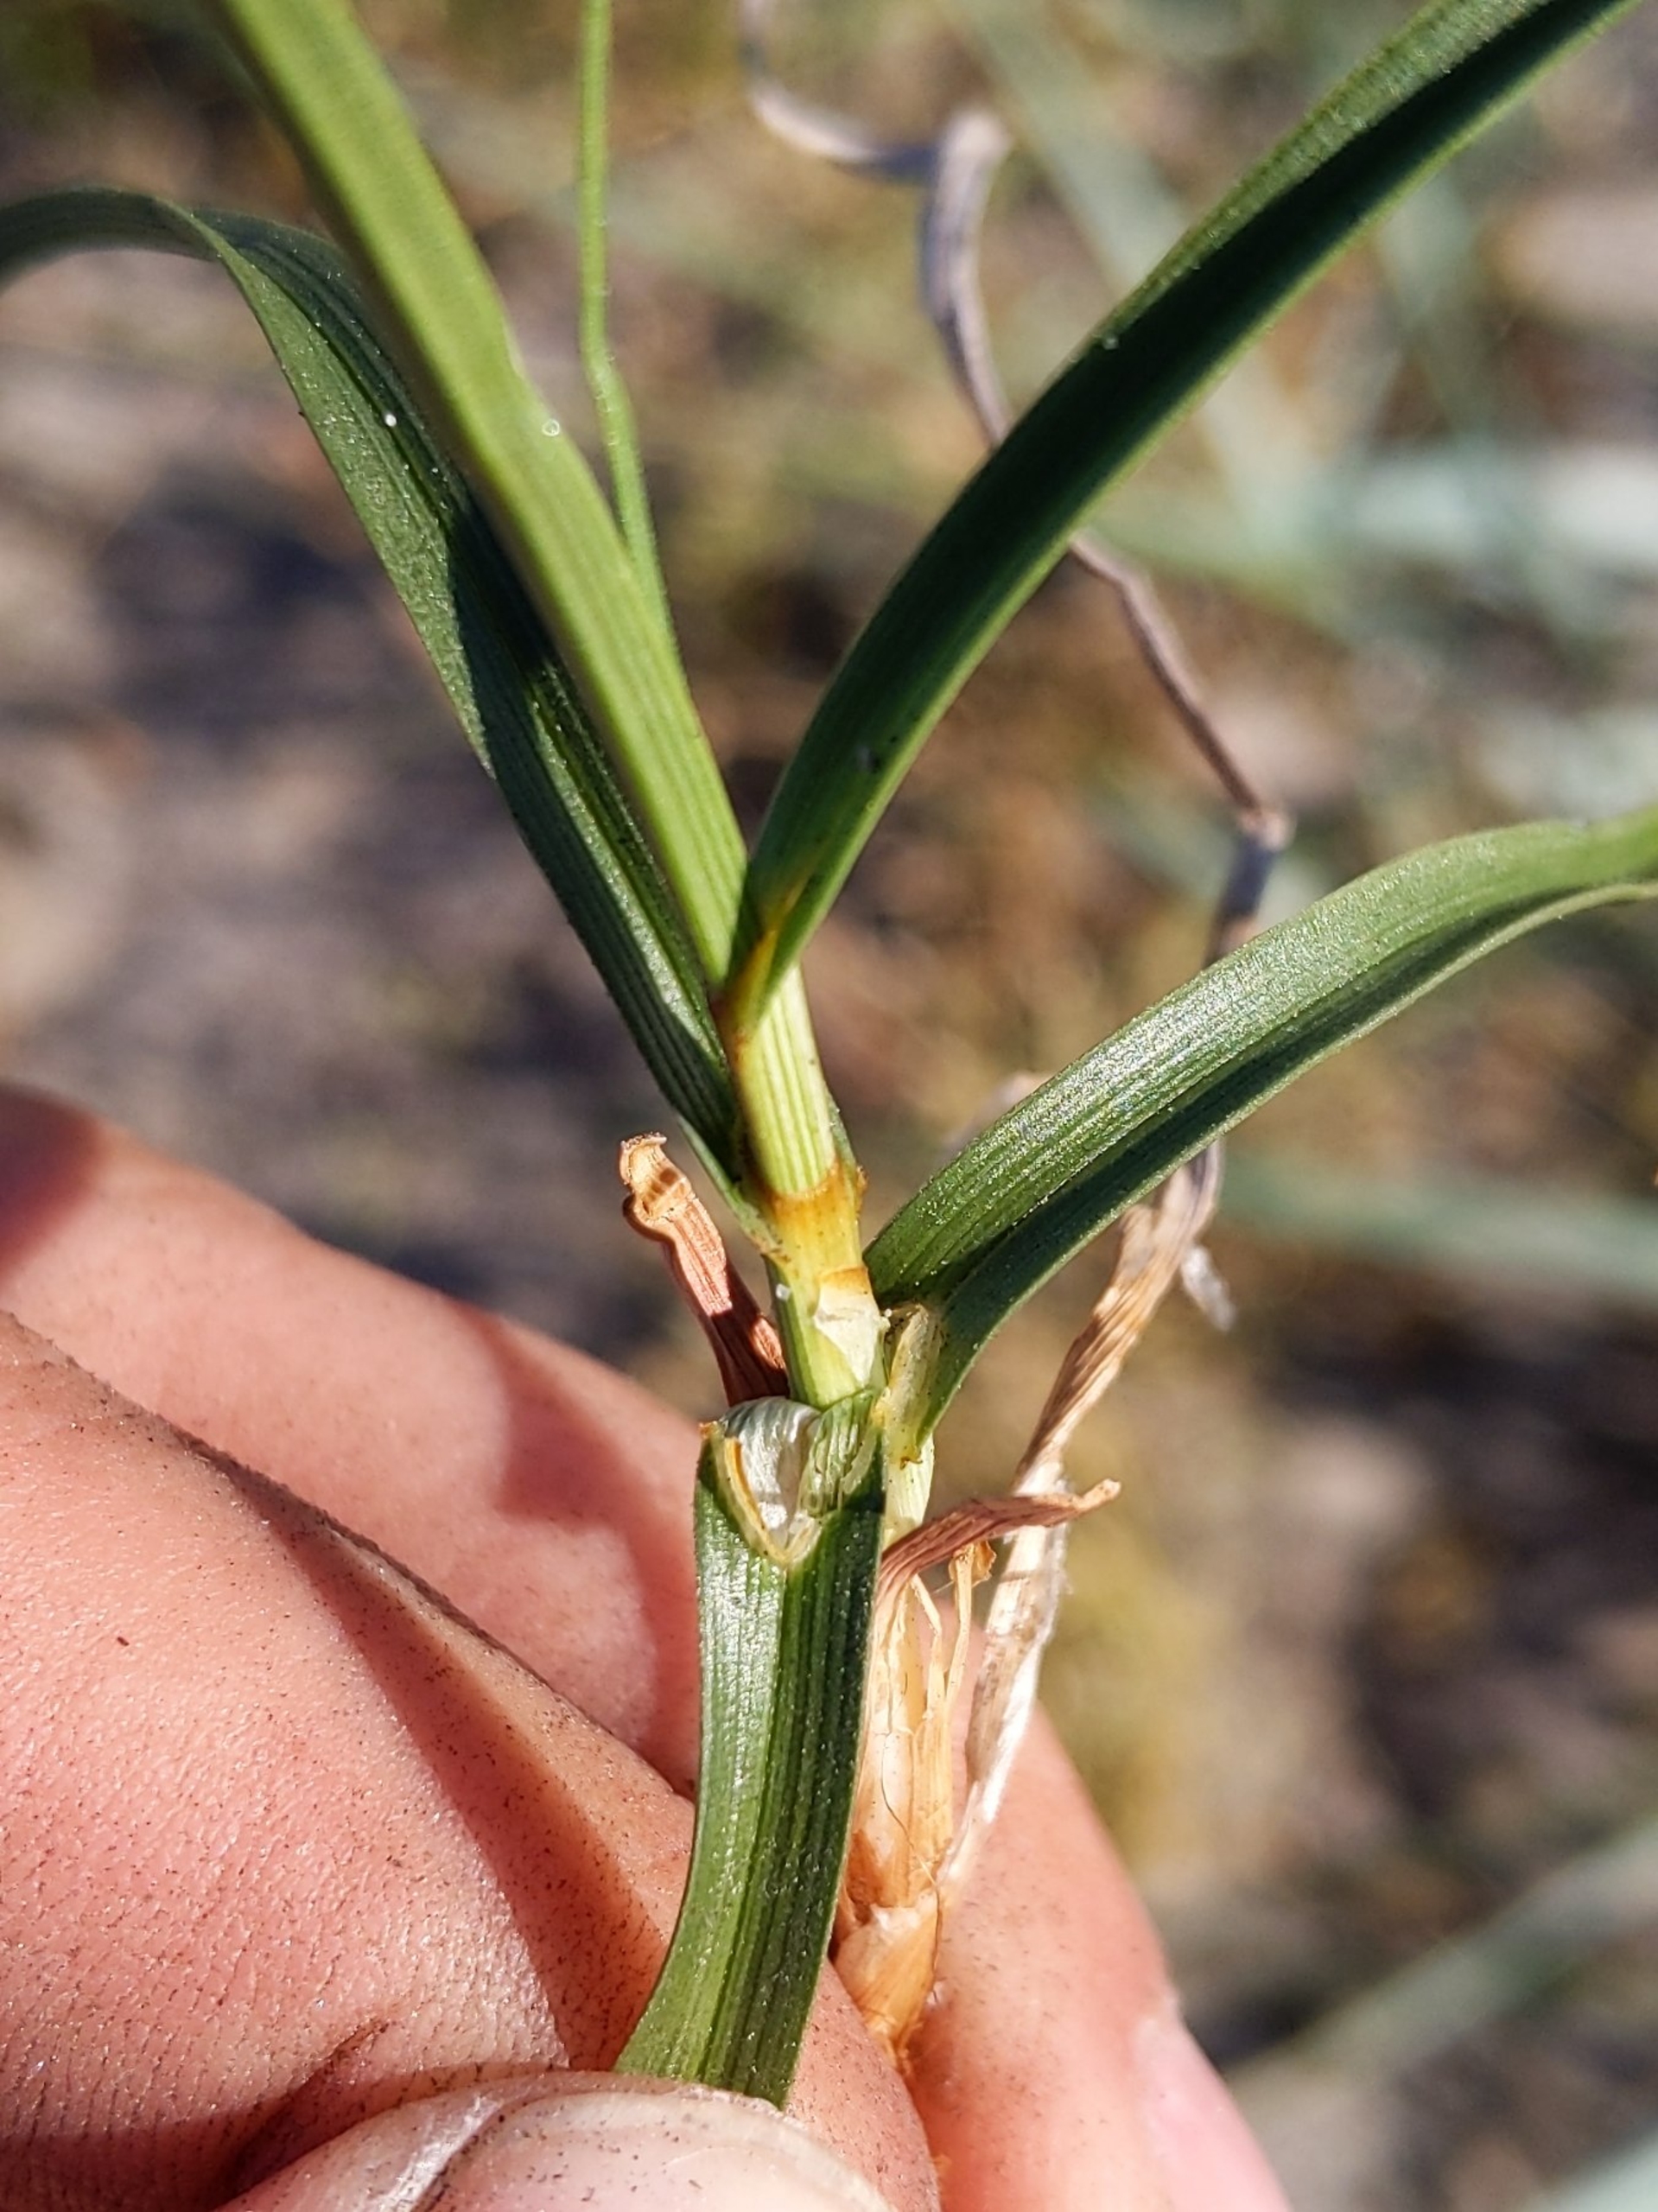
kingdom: Plantae
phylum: Tracheophyta
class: Liliopsida
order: Poales
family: Cyperaceae
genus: Carex
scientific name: Carex arenaria
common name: Sand-star
